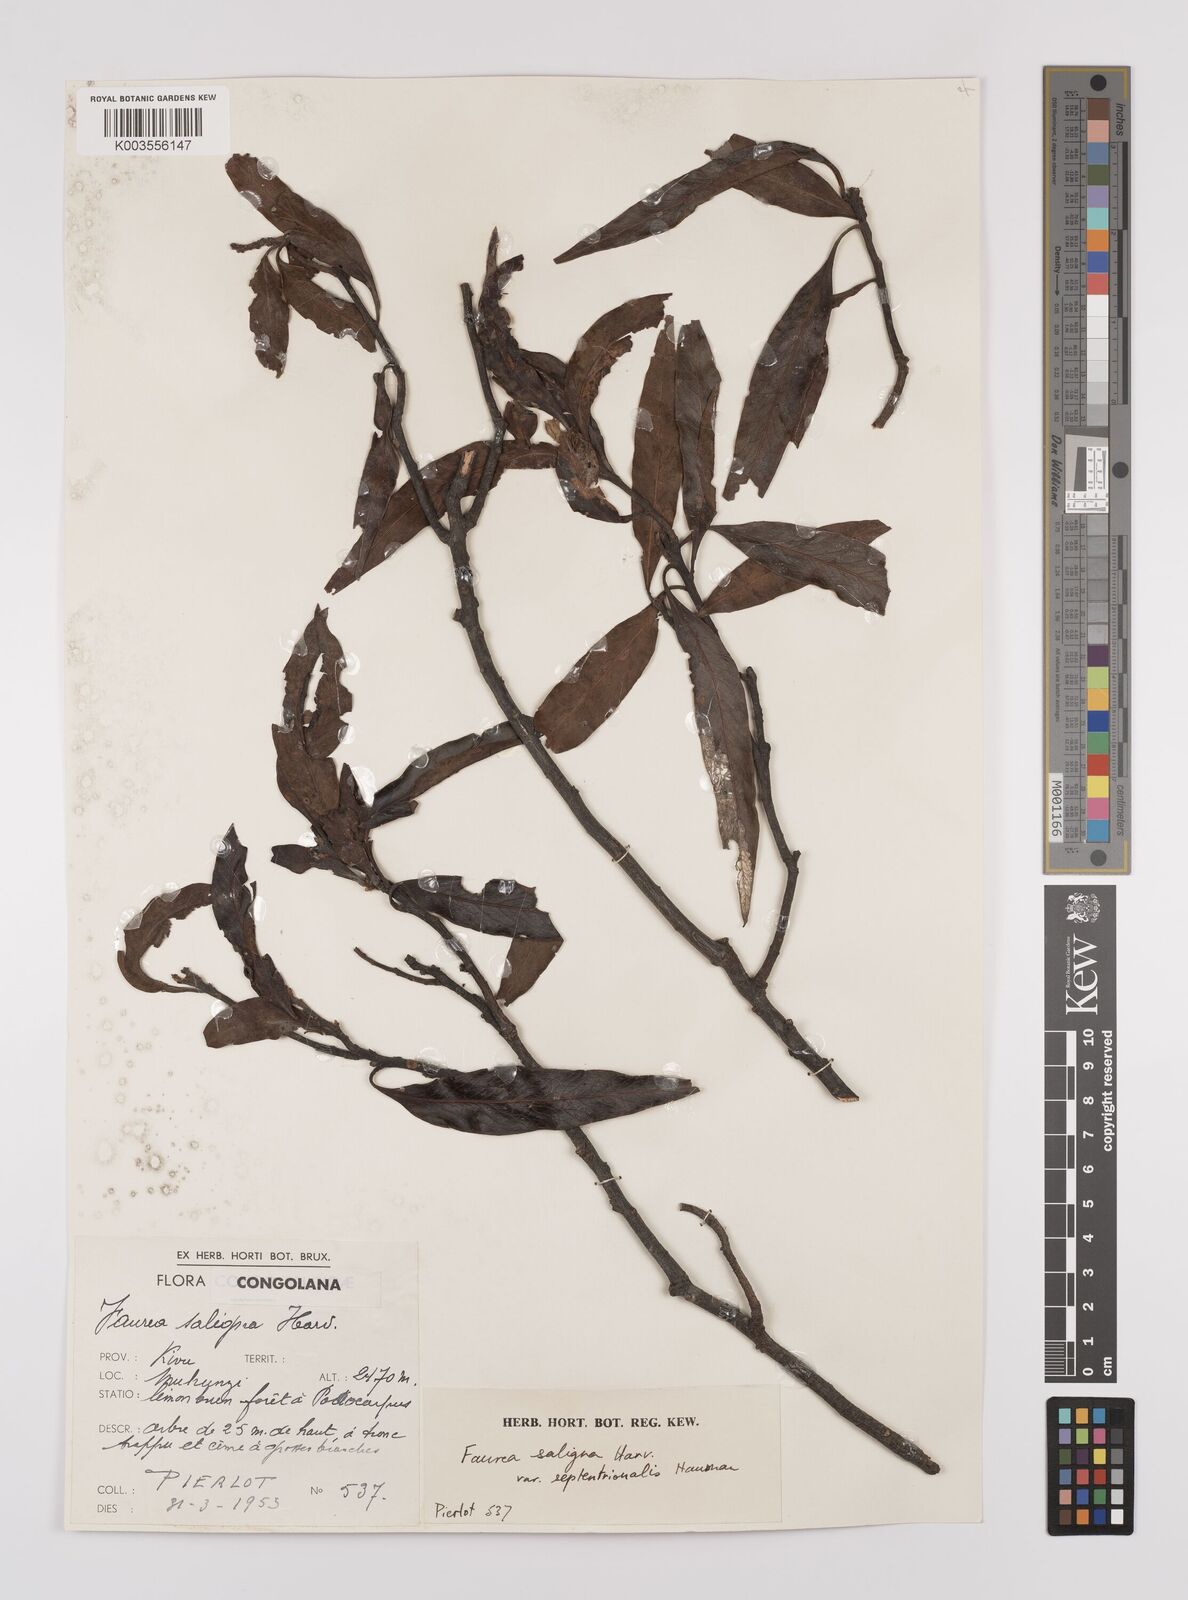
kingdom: Plantae
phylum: Tracheophyta
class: Magnoliopsida
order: Proteales
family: Proteaceae
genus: Faurea
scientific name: Faurea saligna
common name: African bean
